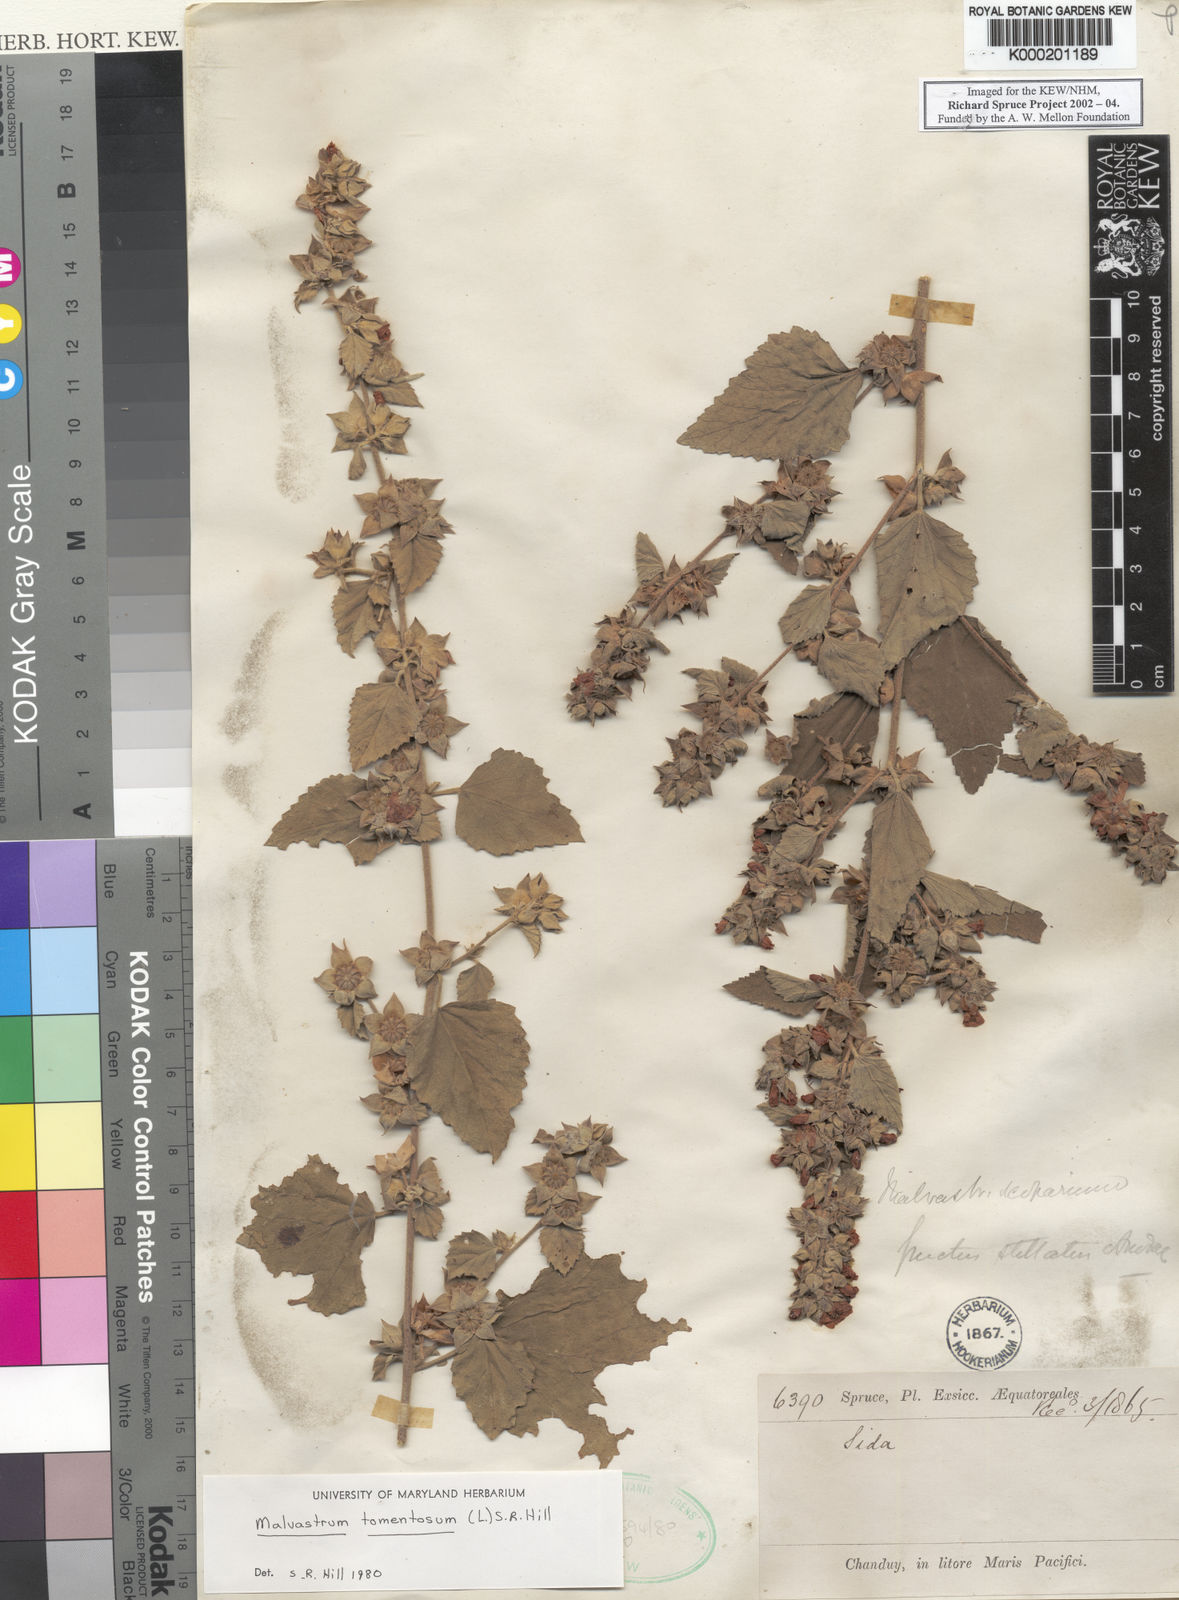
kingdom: Plantae
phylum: Tracheophyta
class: Magnoliopsida
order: Malvales
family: Malvaceae
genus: Malvastrum
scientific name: Malvastrum tomentosum
